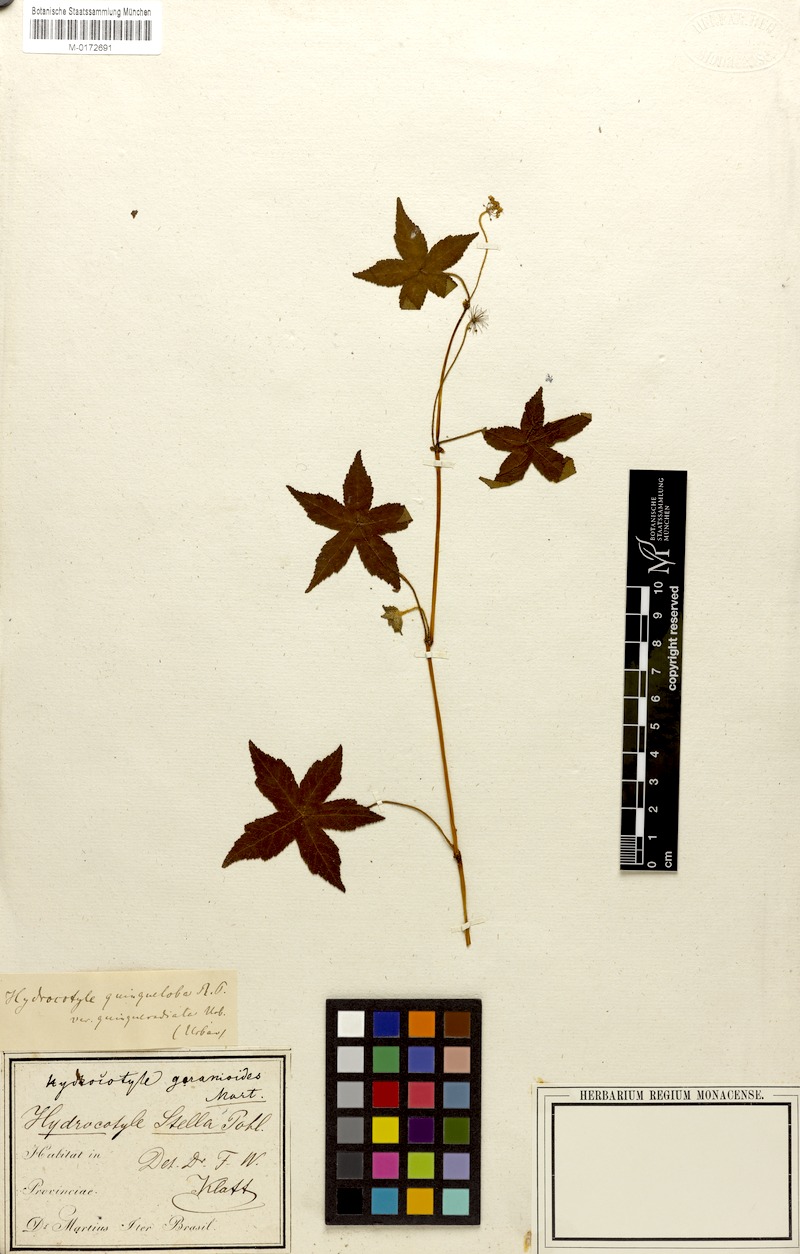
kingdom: Plantae
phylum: Tracheophyta
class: Magnoliopsida
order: Apiales
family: Araliaceae
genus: Hydrocotyle
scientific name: Hydrocotyle quinqueloba
